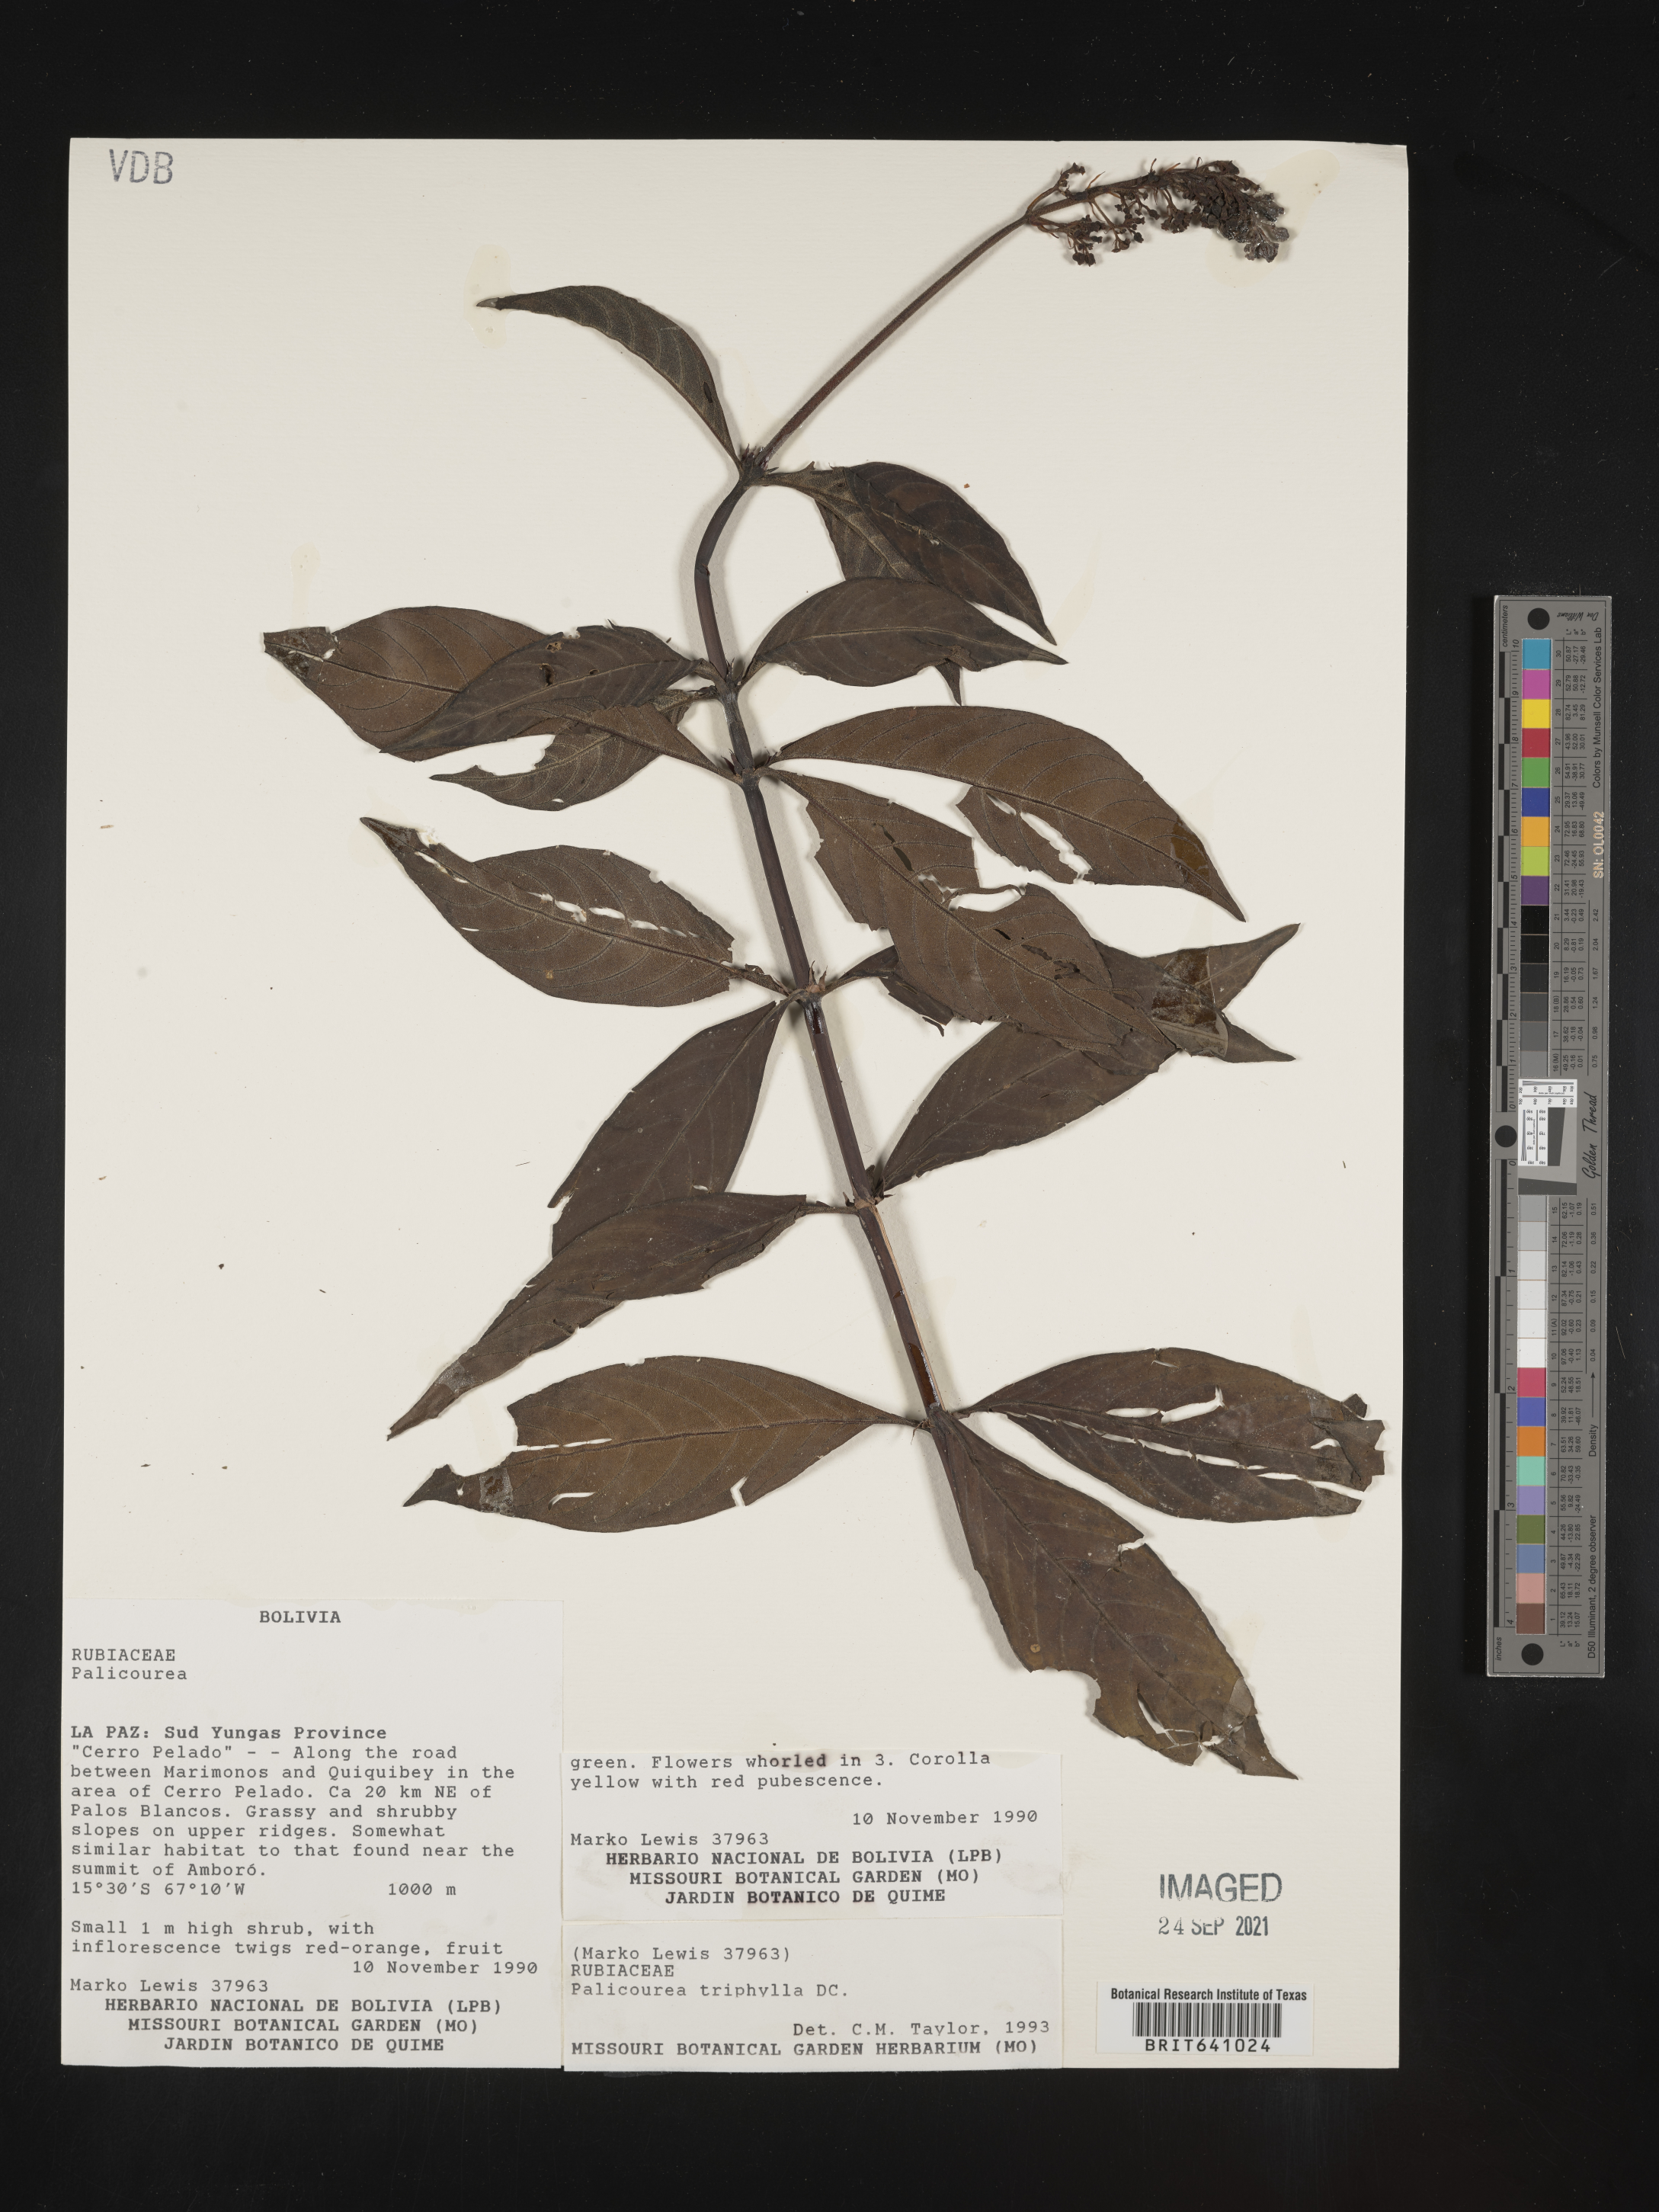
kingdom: Plantae
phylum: Tracheophyta
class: Magnoliopsida
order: Gentianales
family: Rubiaceae
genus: Palicourea
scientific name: Palicourea
